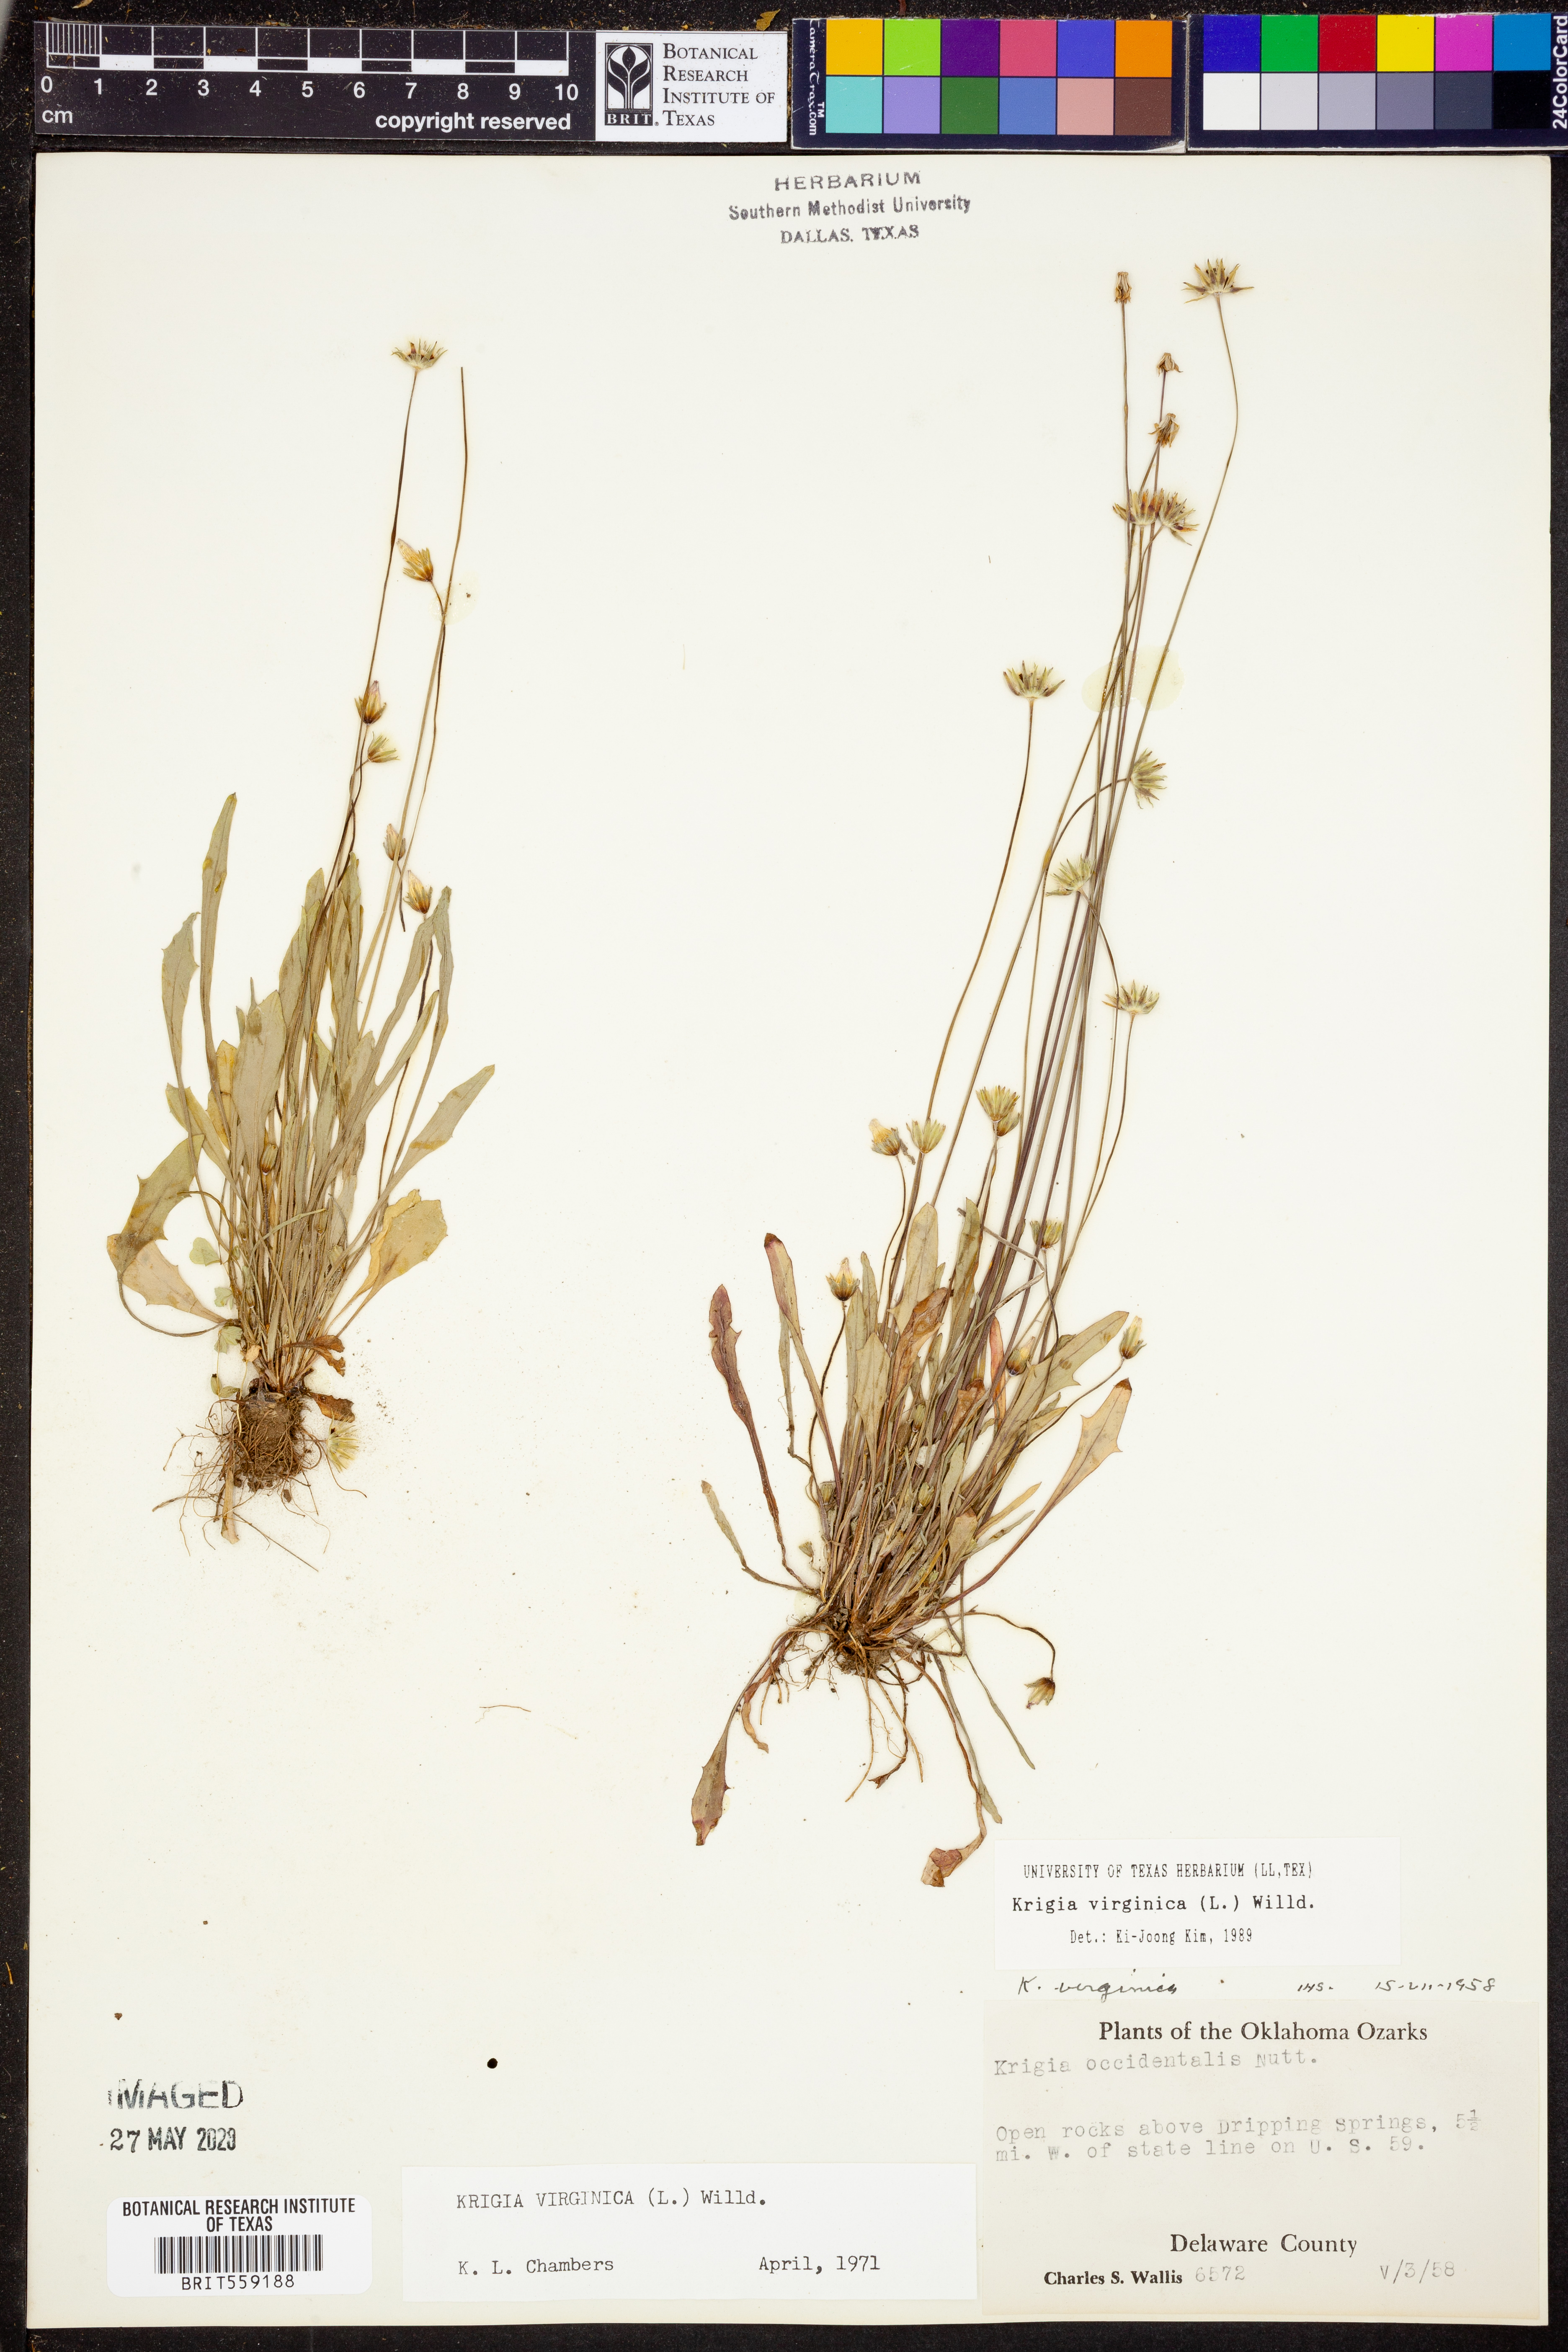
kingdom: Plantae
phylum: Tracheophyta
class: Magnoliopsida
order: Asterales
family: Asteraceae
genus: Krigia
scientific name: Krigia virginica
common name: Virginia dwarf-dandelion
